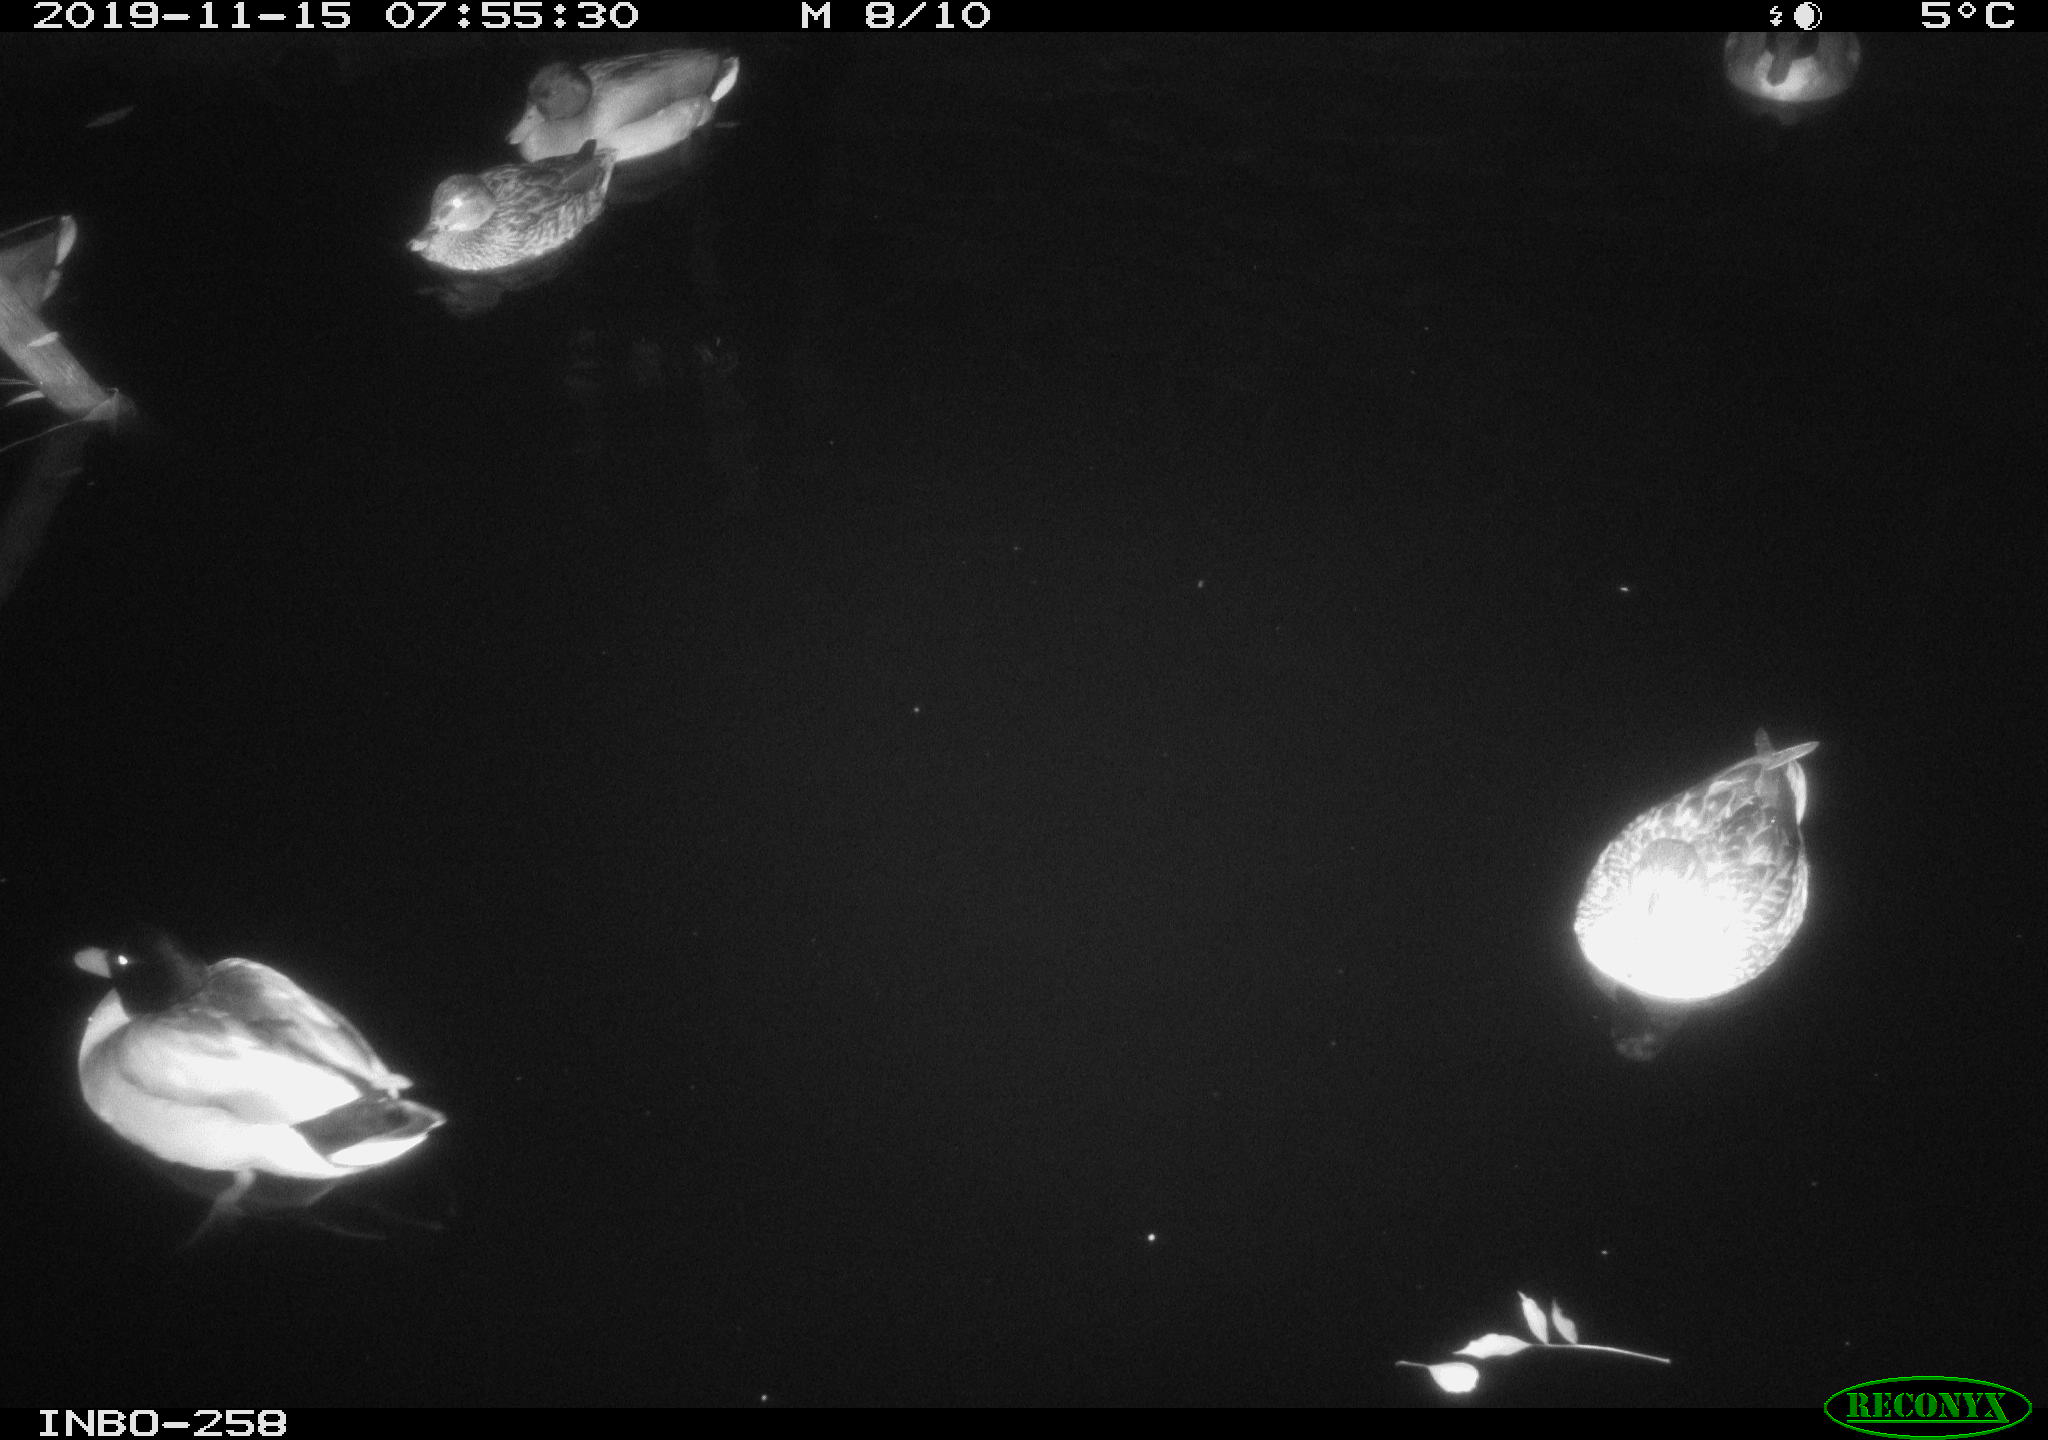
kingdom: Animalia
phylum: Chordata
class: Aves
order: Anseriformes
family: Anatidae
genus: Anas
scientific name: Anas platyrhynchos
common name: Mallard
